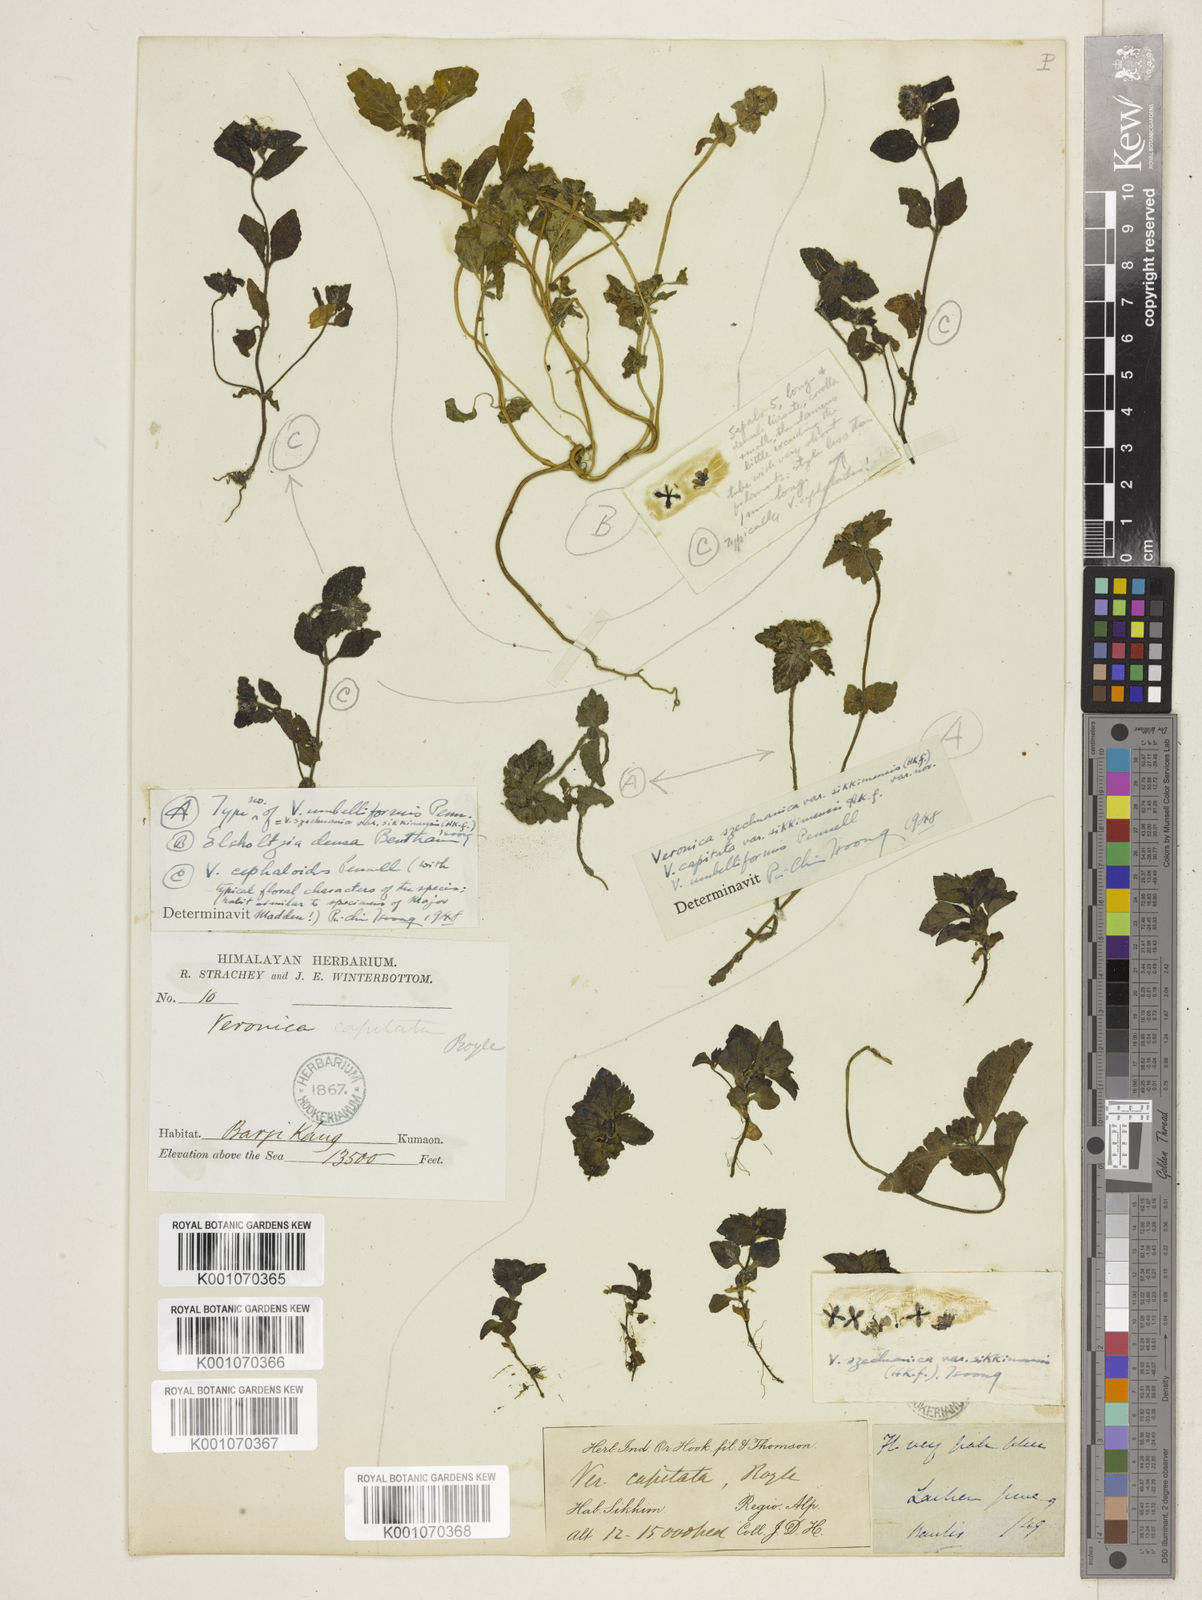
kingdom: Plantae
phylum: Tracheophyta
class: Magnoliopsida
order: Lamiales
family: Plantaginaceae
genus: Veronica
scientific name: Veronica szechuanica
